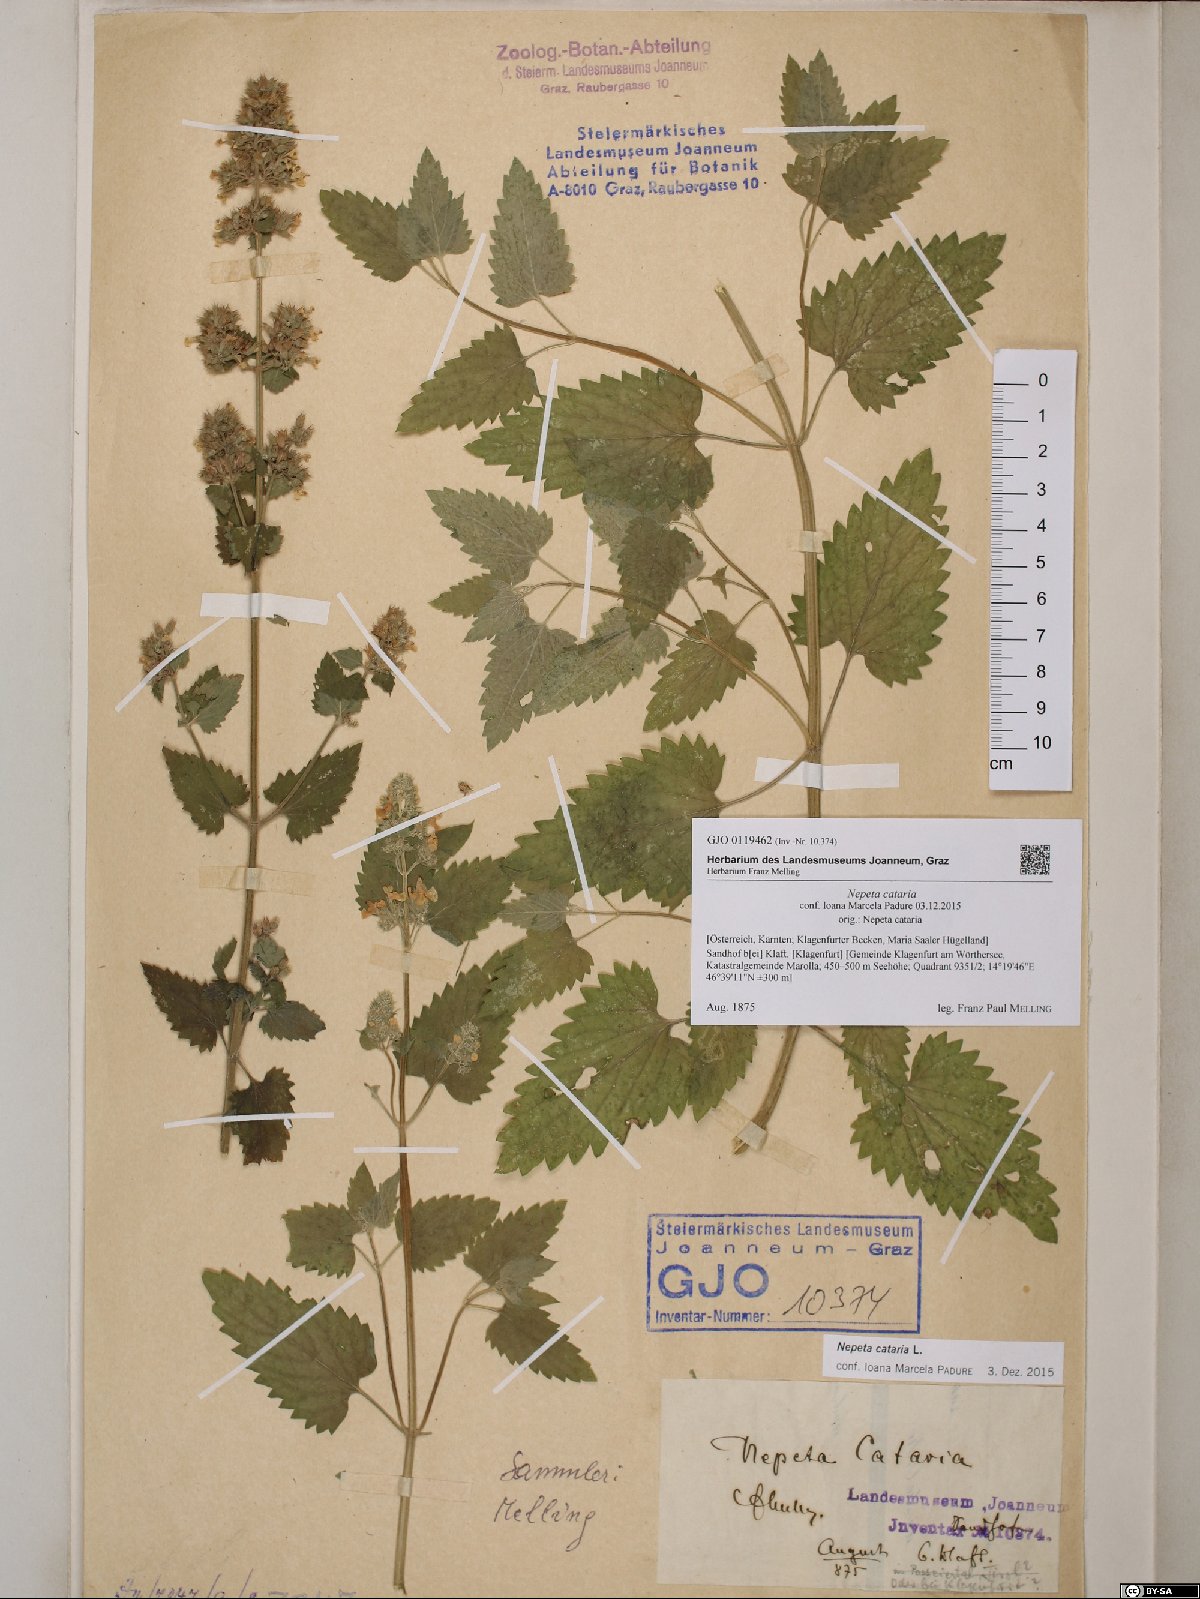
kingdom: Plantae
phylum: Tracheophyta
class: Magnoliopsida
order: Lamiales
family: Lamiaceae
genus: Nepeta
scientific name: Nepeta cataria
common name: Catnip
